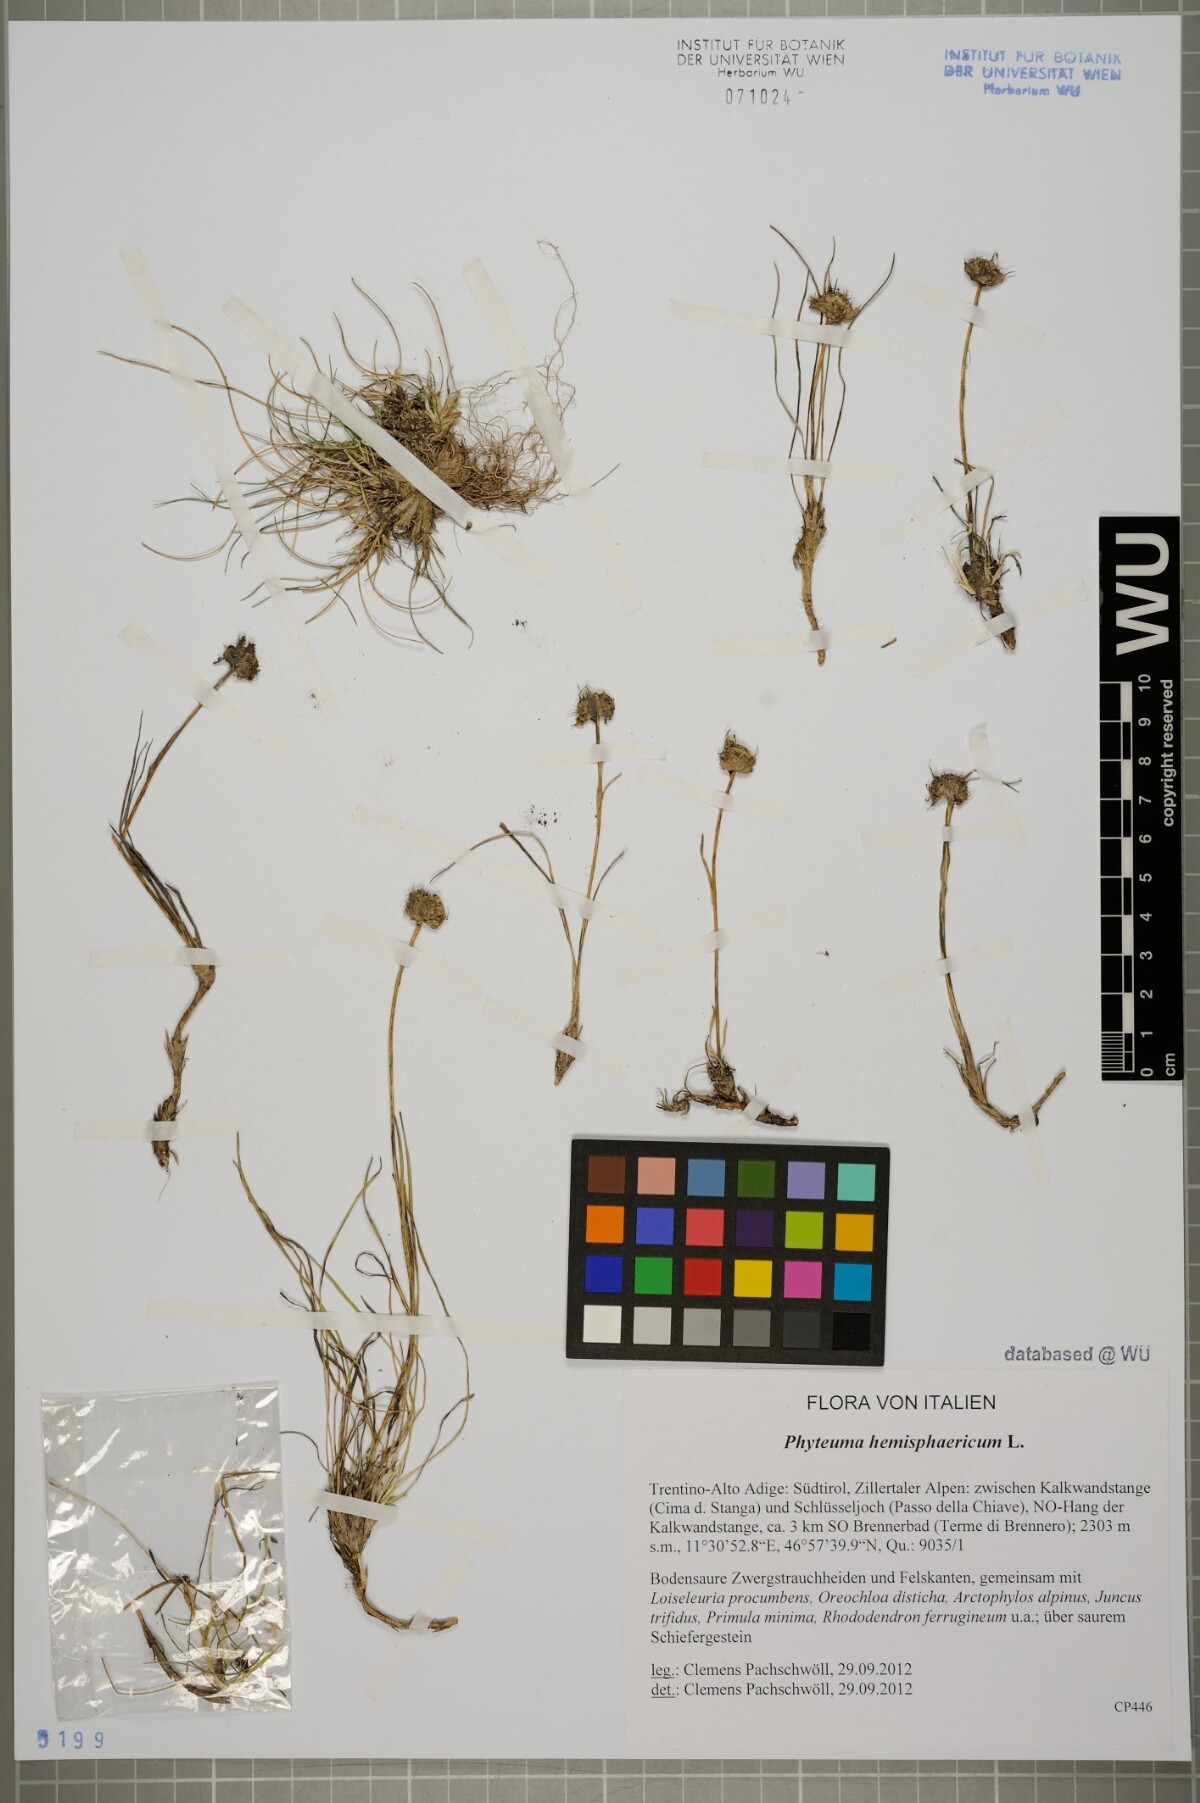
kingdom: Plantae
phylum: Tracheophyta
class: Magnoliopsida
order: Asterales
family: Campanulaceae
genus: Phyteuma
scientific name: Phyteuma hemisphaericum
